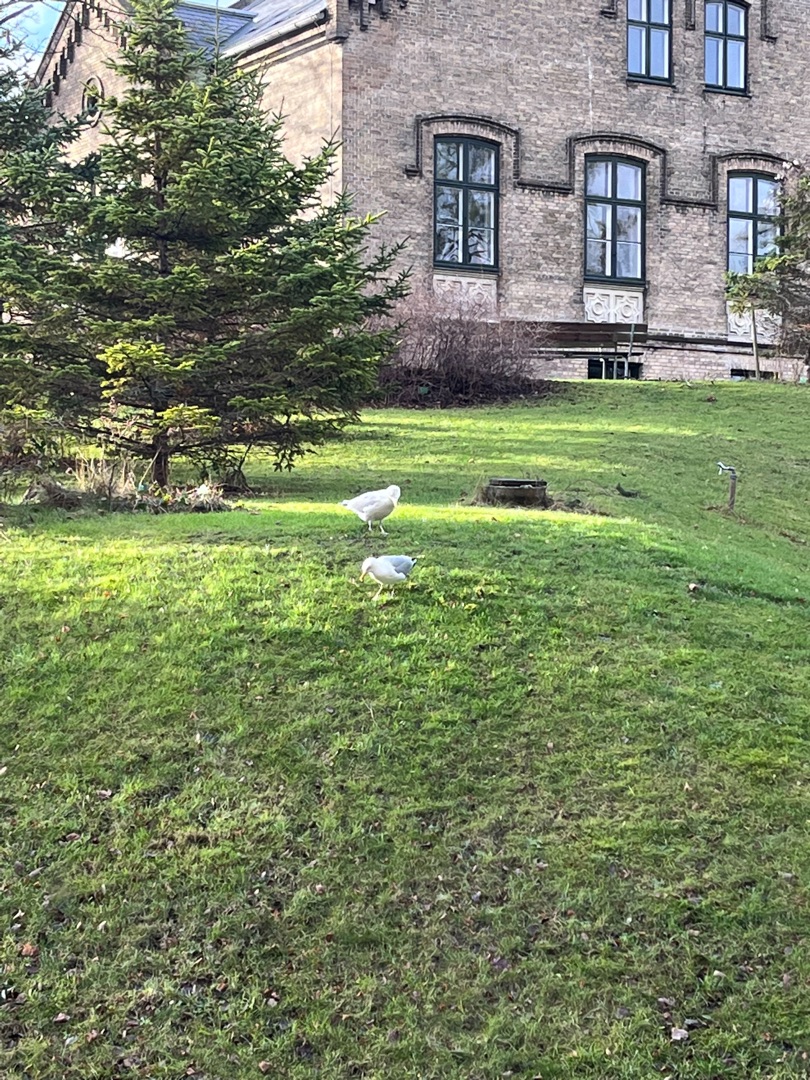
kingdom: Animalia
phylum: Chordata
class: Aves
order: Charadriiformes
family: Laridae
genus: Larus
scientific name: Larus argentatus
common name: Sølvmåge
